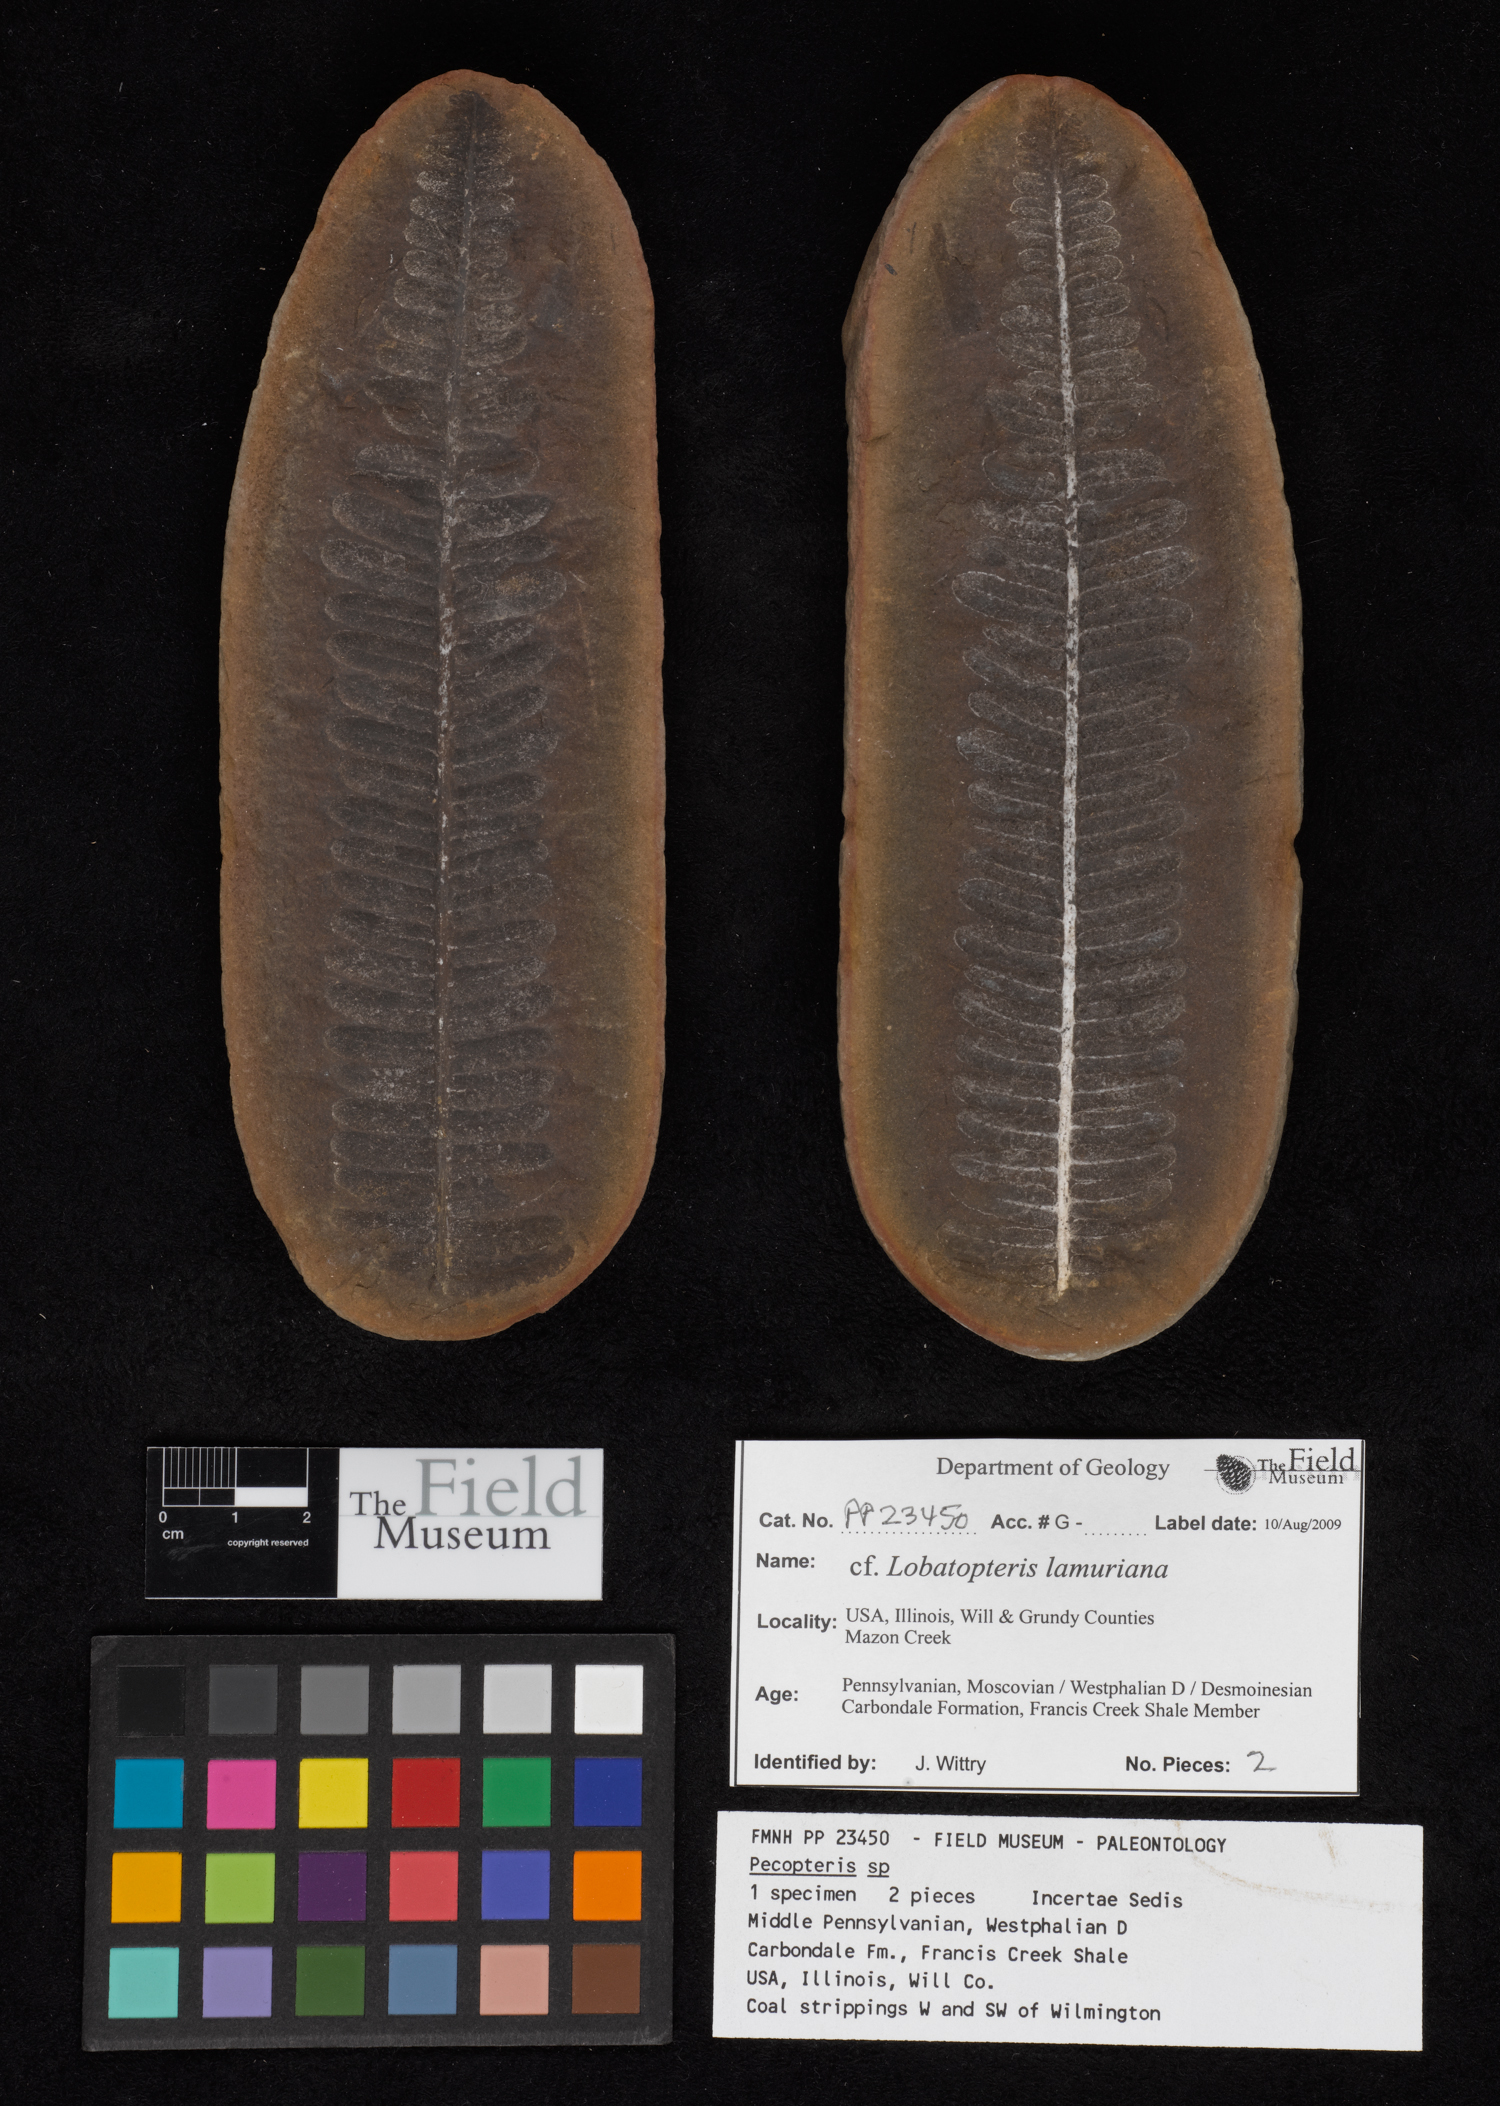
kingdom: Plantae
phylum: Tracheophyta
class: Polypodiopsida
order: Marattiales
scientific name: Marattiales
